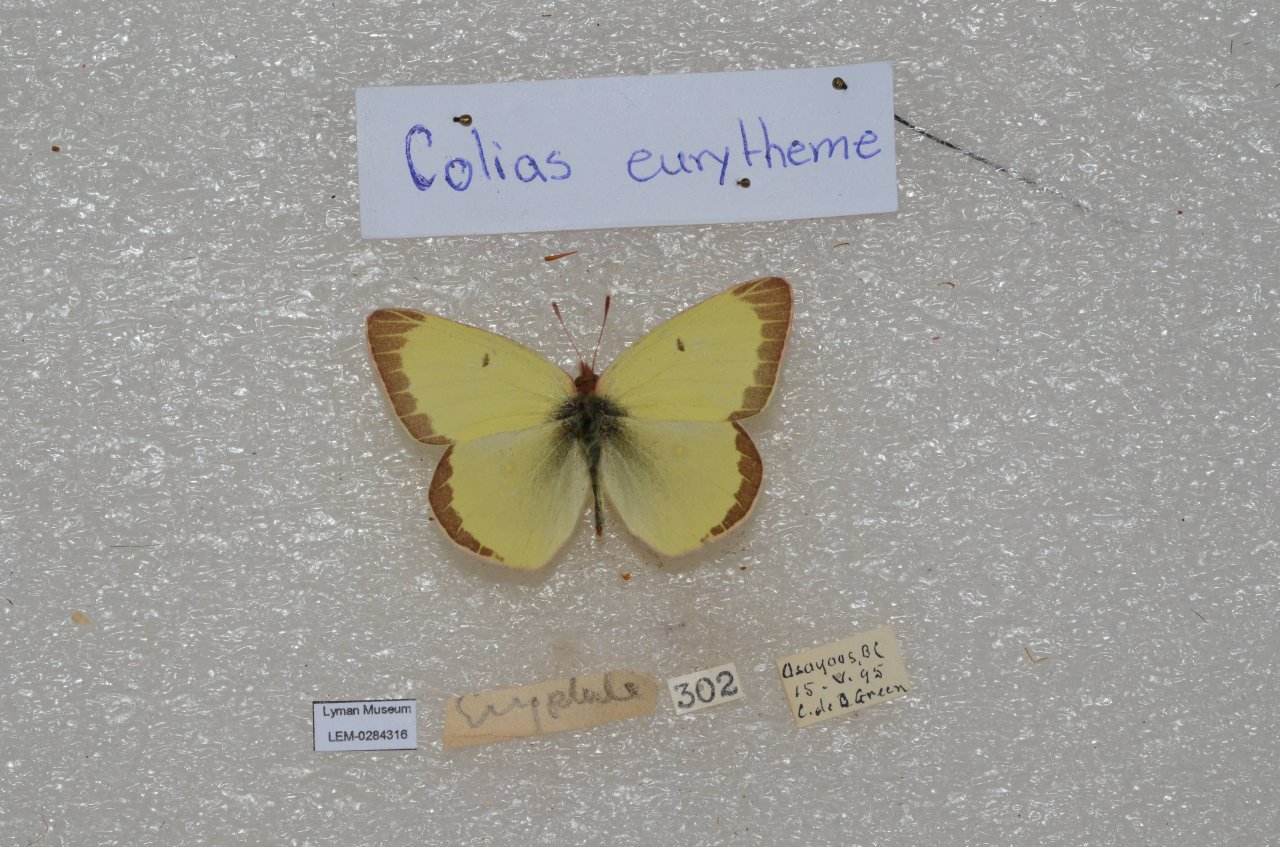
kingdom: Animalia
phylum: Arthropoda
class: Insecta
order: Lepidoptera
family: Pieridae
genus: Colias
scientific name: Colias eurytheme
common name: Orange Sulphur
